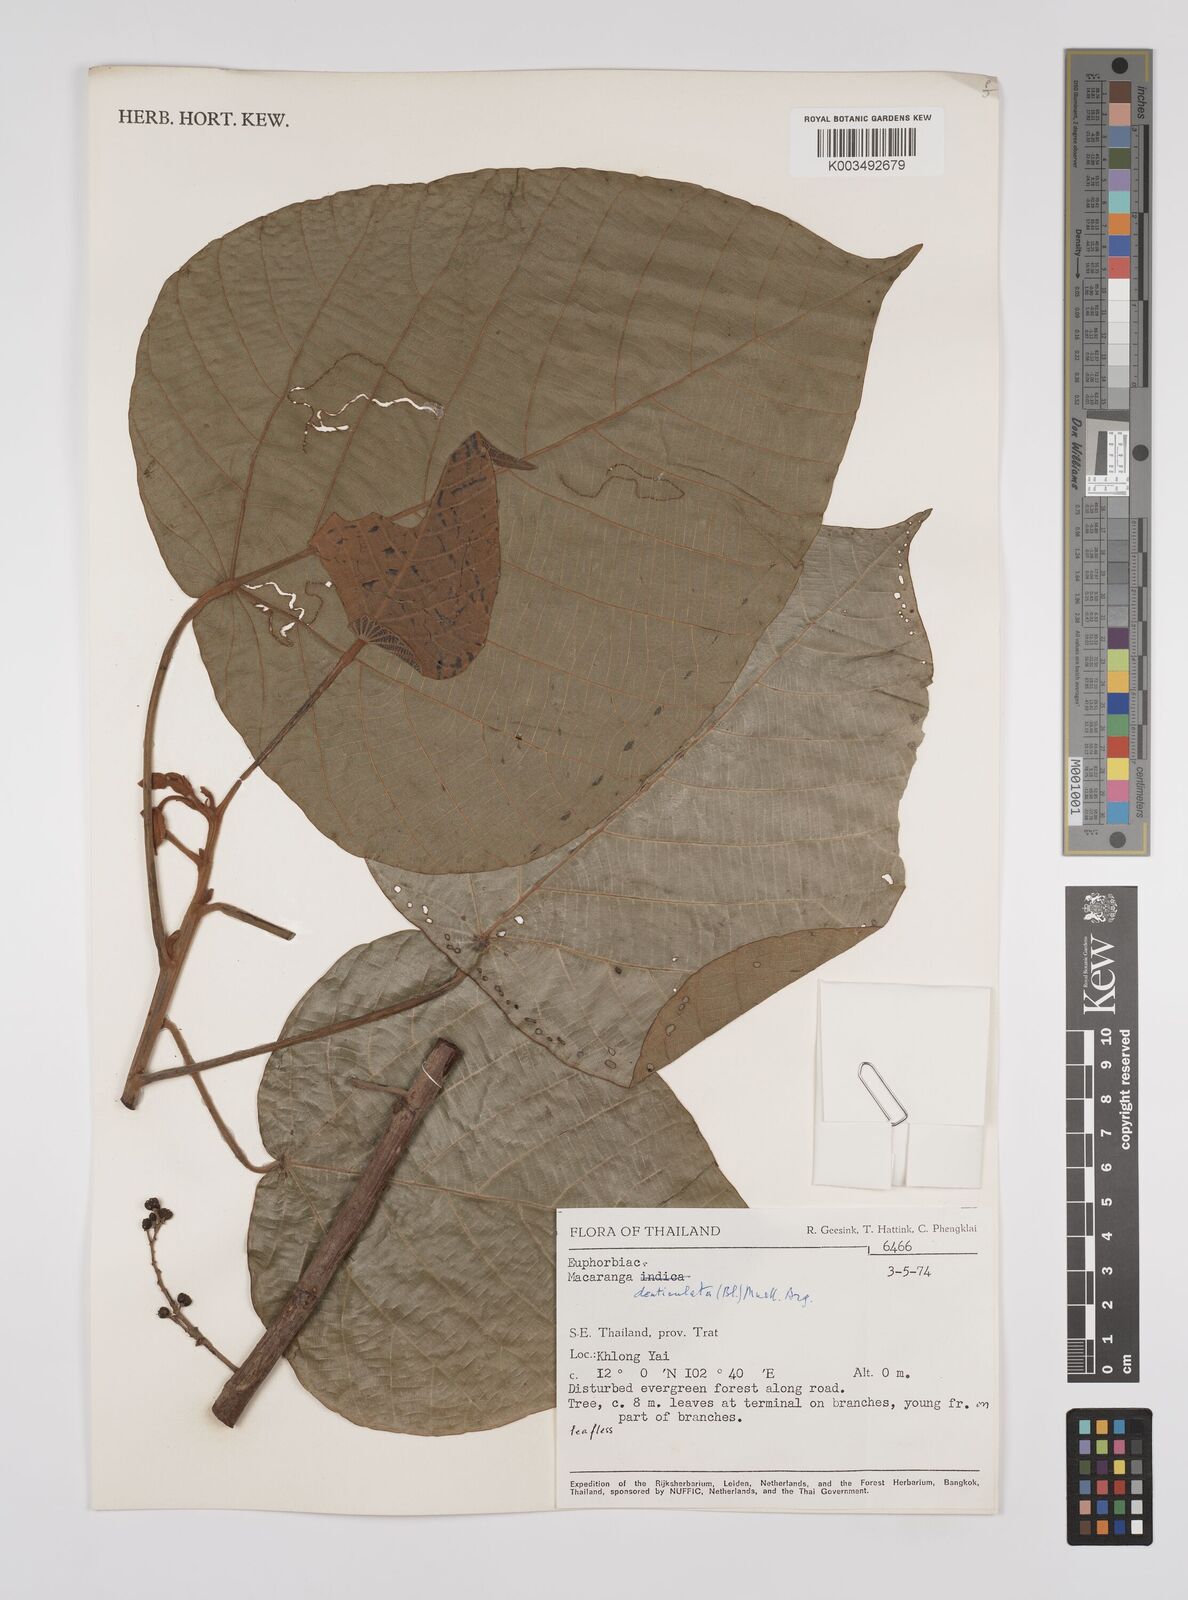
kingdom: Plantae
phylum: Tracheophyta
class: Magnoliopsida
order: Malpighiales
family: Euphorbiaceae
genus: Macaranga
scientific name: Macaranga denticulata
